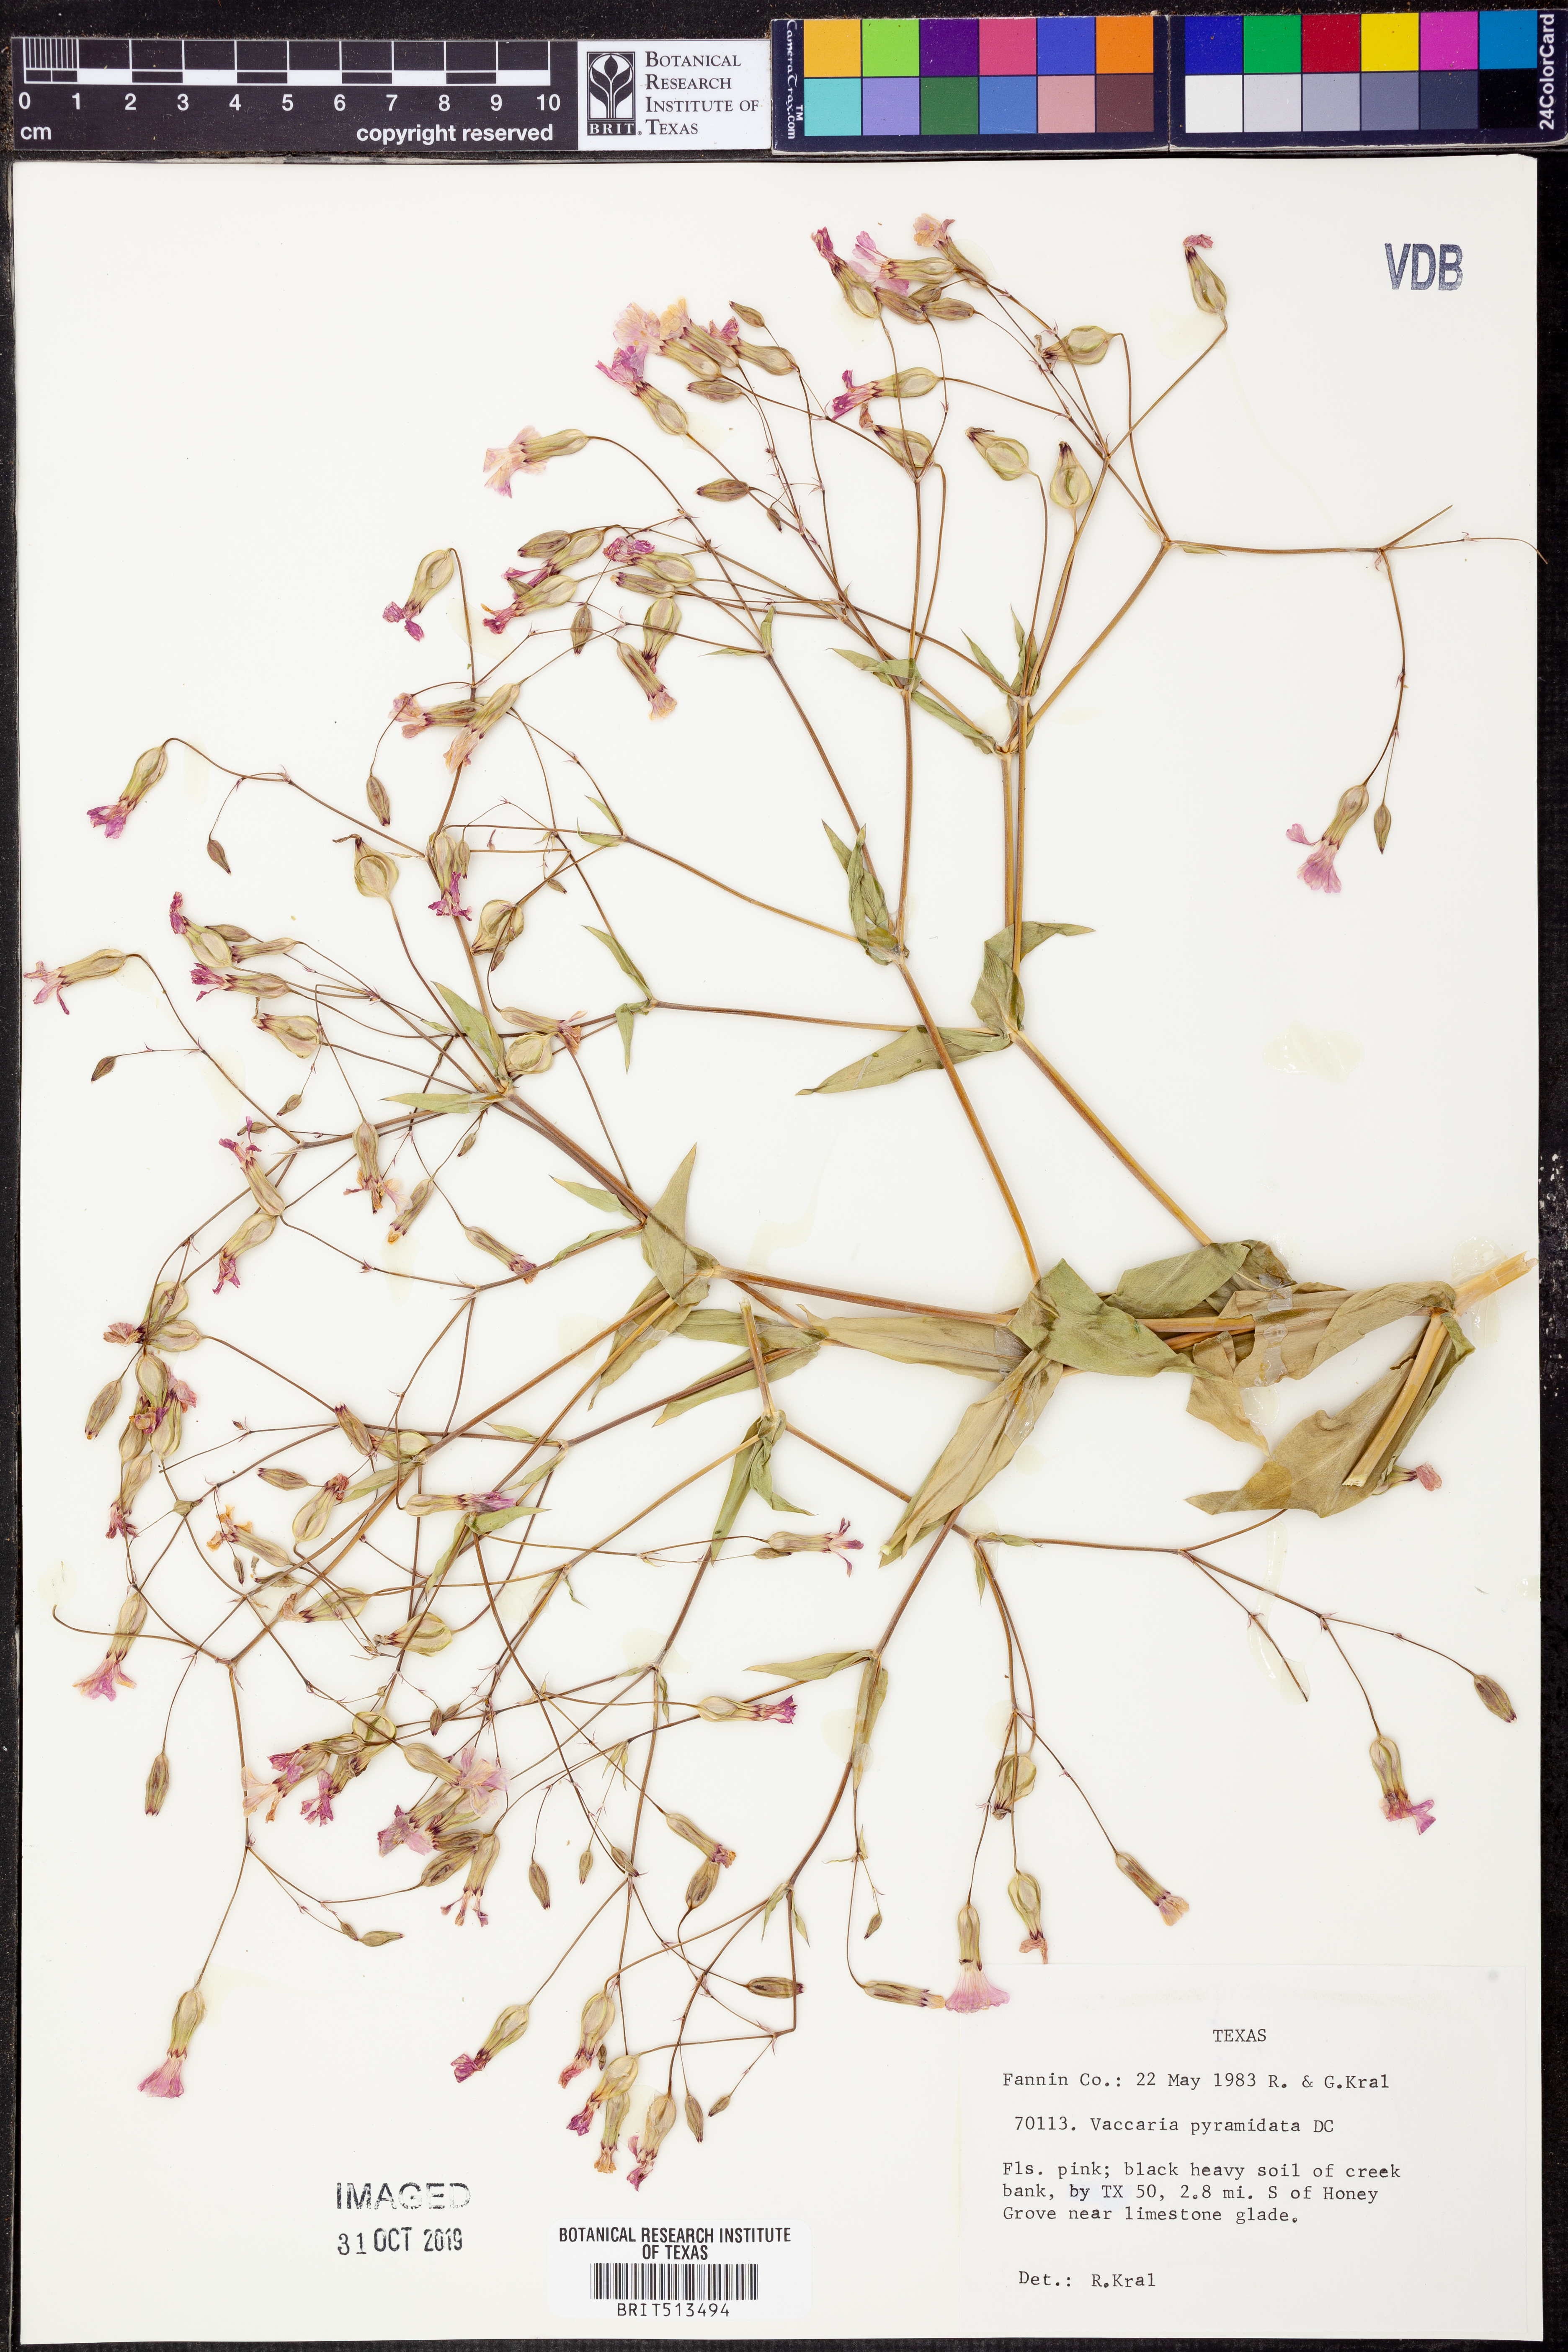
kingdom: Plantae
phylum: Tracheophyta
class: Magnoliopsida
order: Caryophyllales
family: Caryophyllaceae
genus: Gypsophila
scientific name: Gypsophila vaccaria
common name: Cow soapwort
